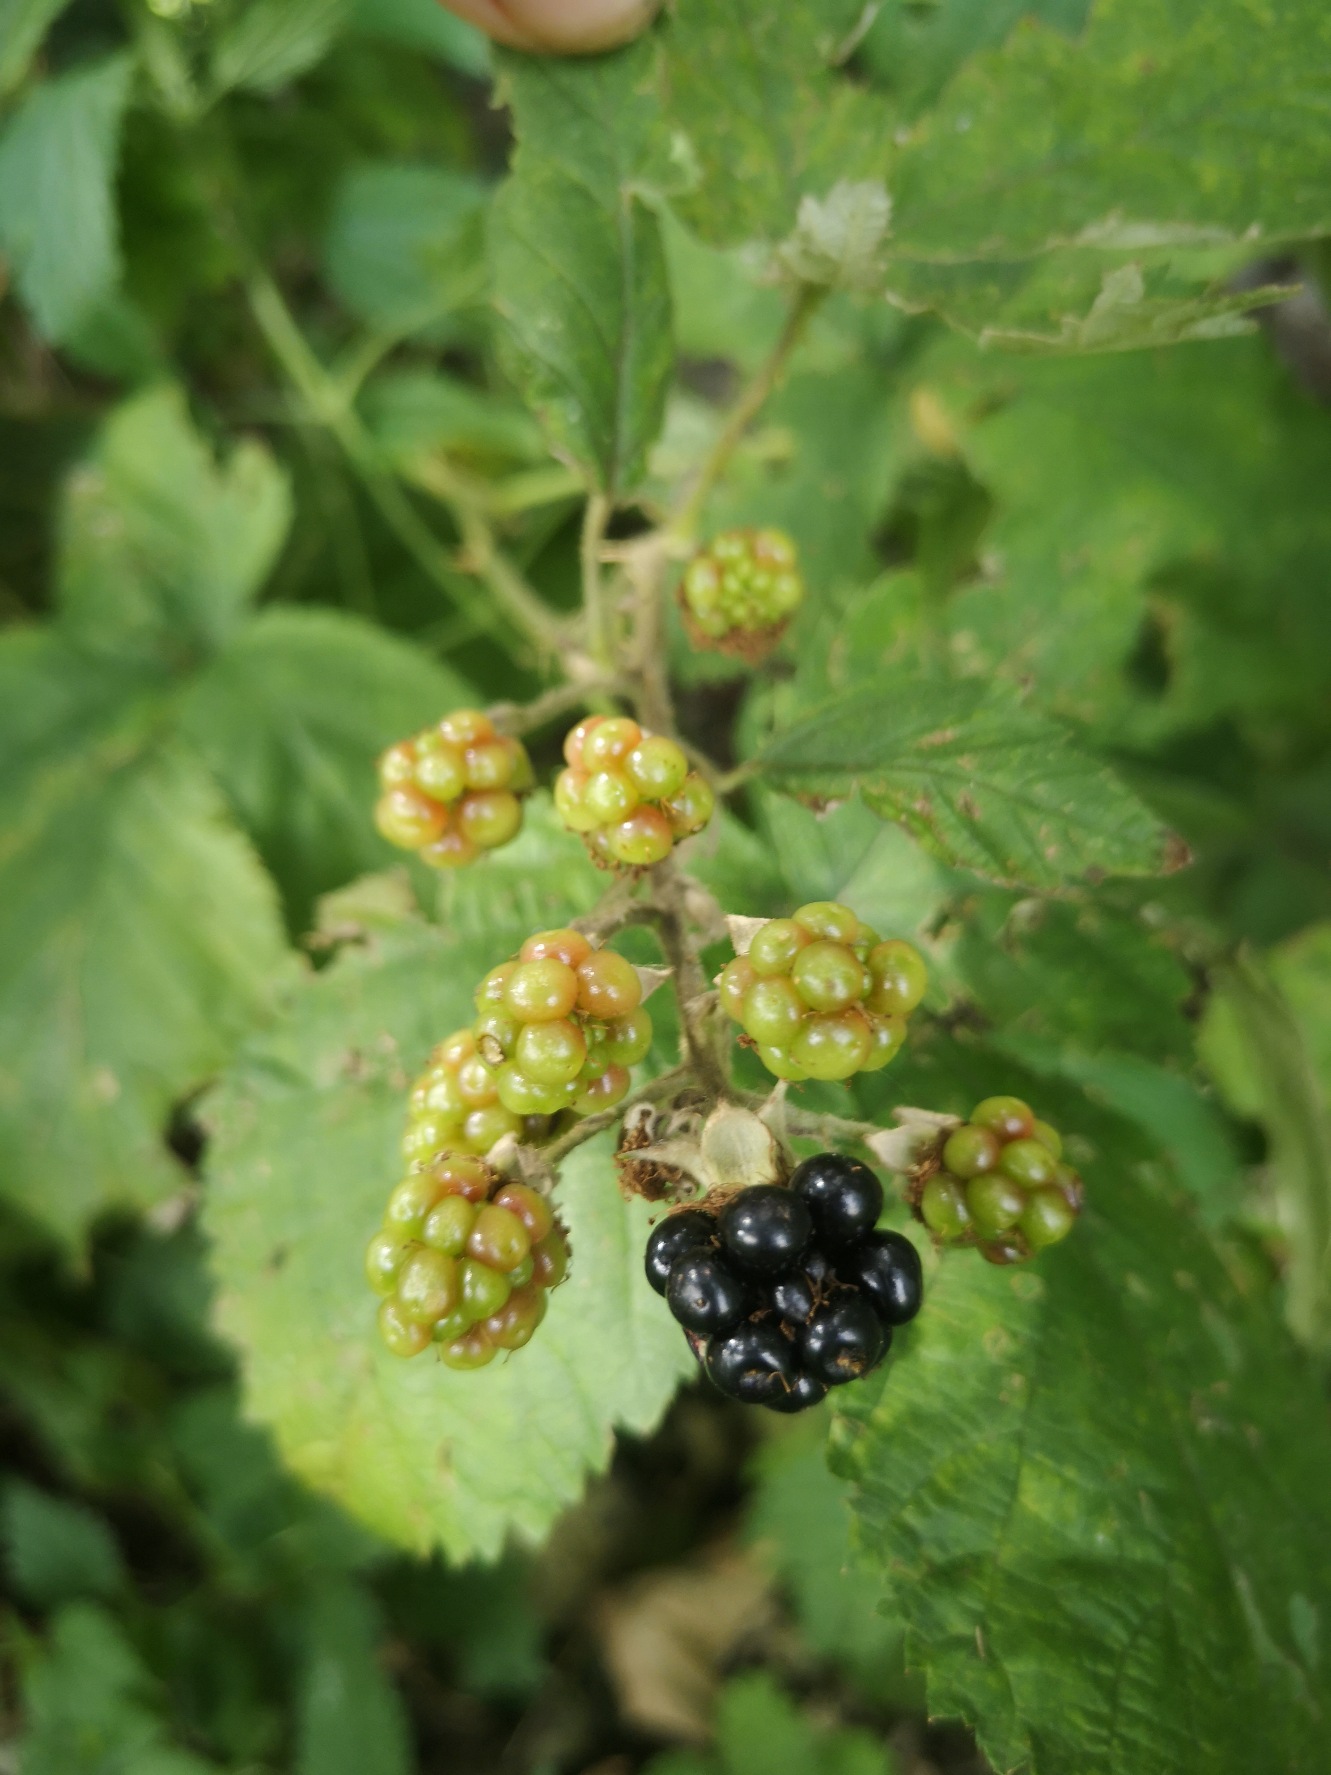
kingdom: Plantae
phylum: Tracheophyta
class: Magnoliopsida
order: Rosales
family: Rosaceae
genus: Rubus
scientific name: Rubus
